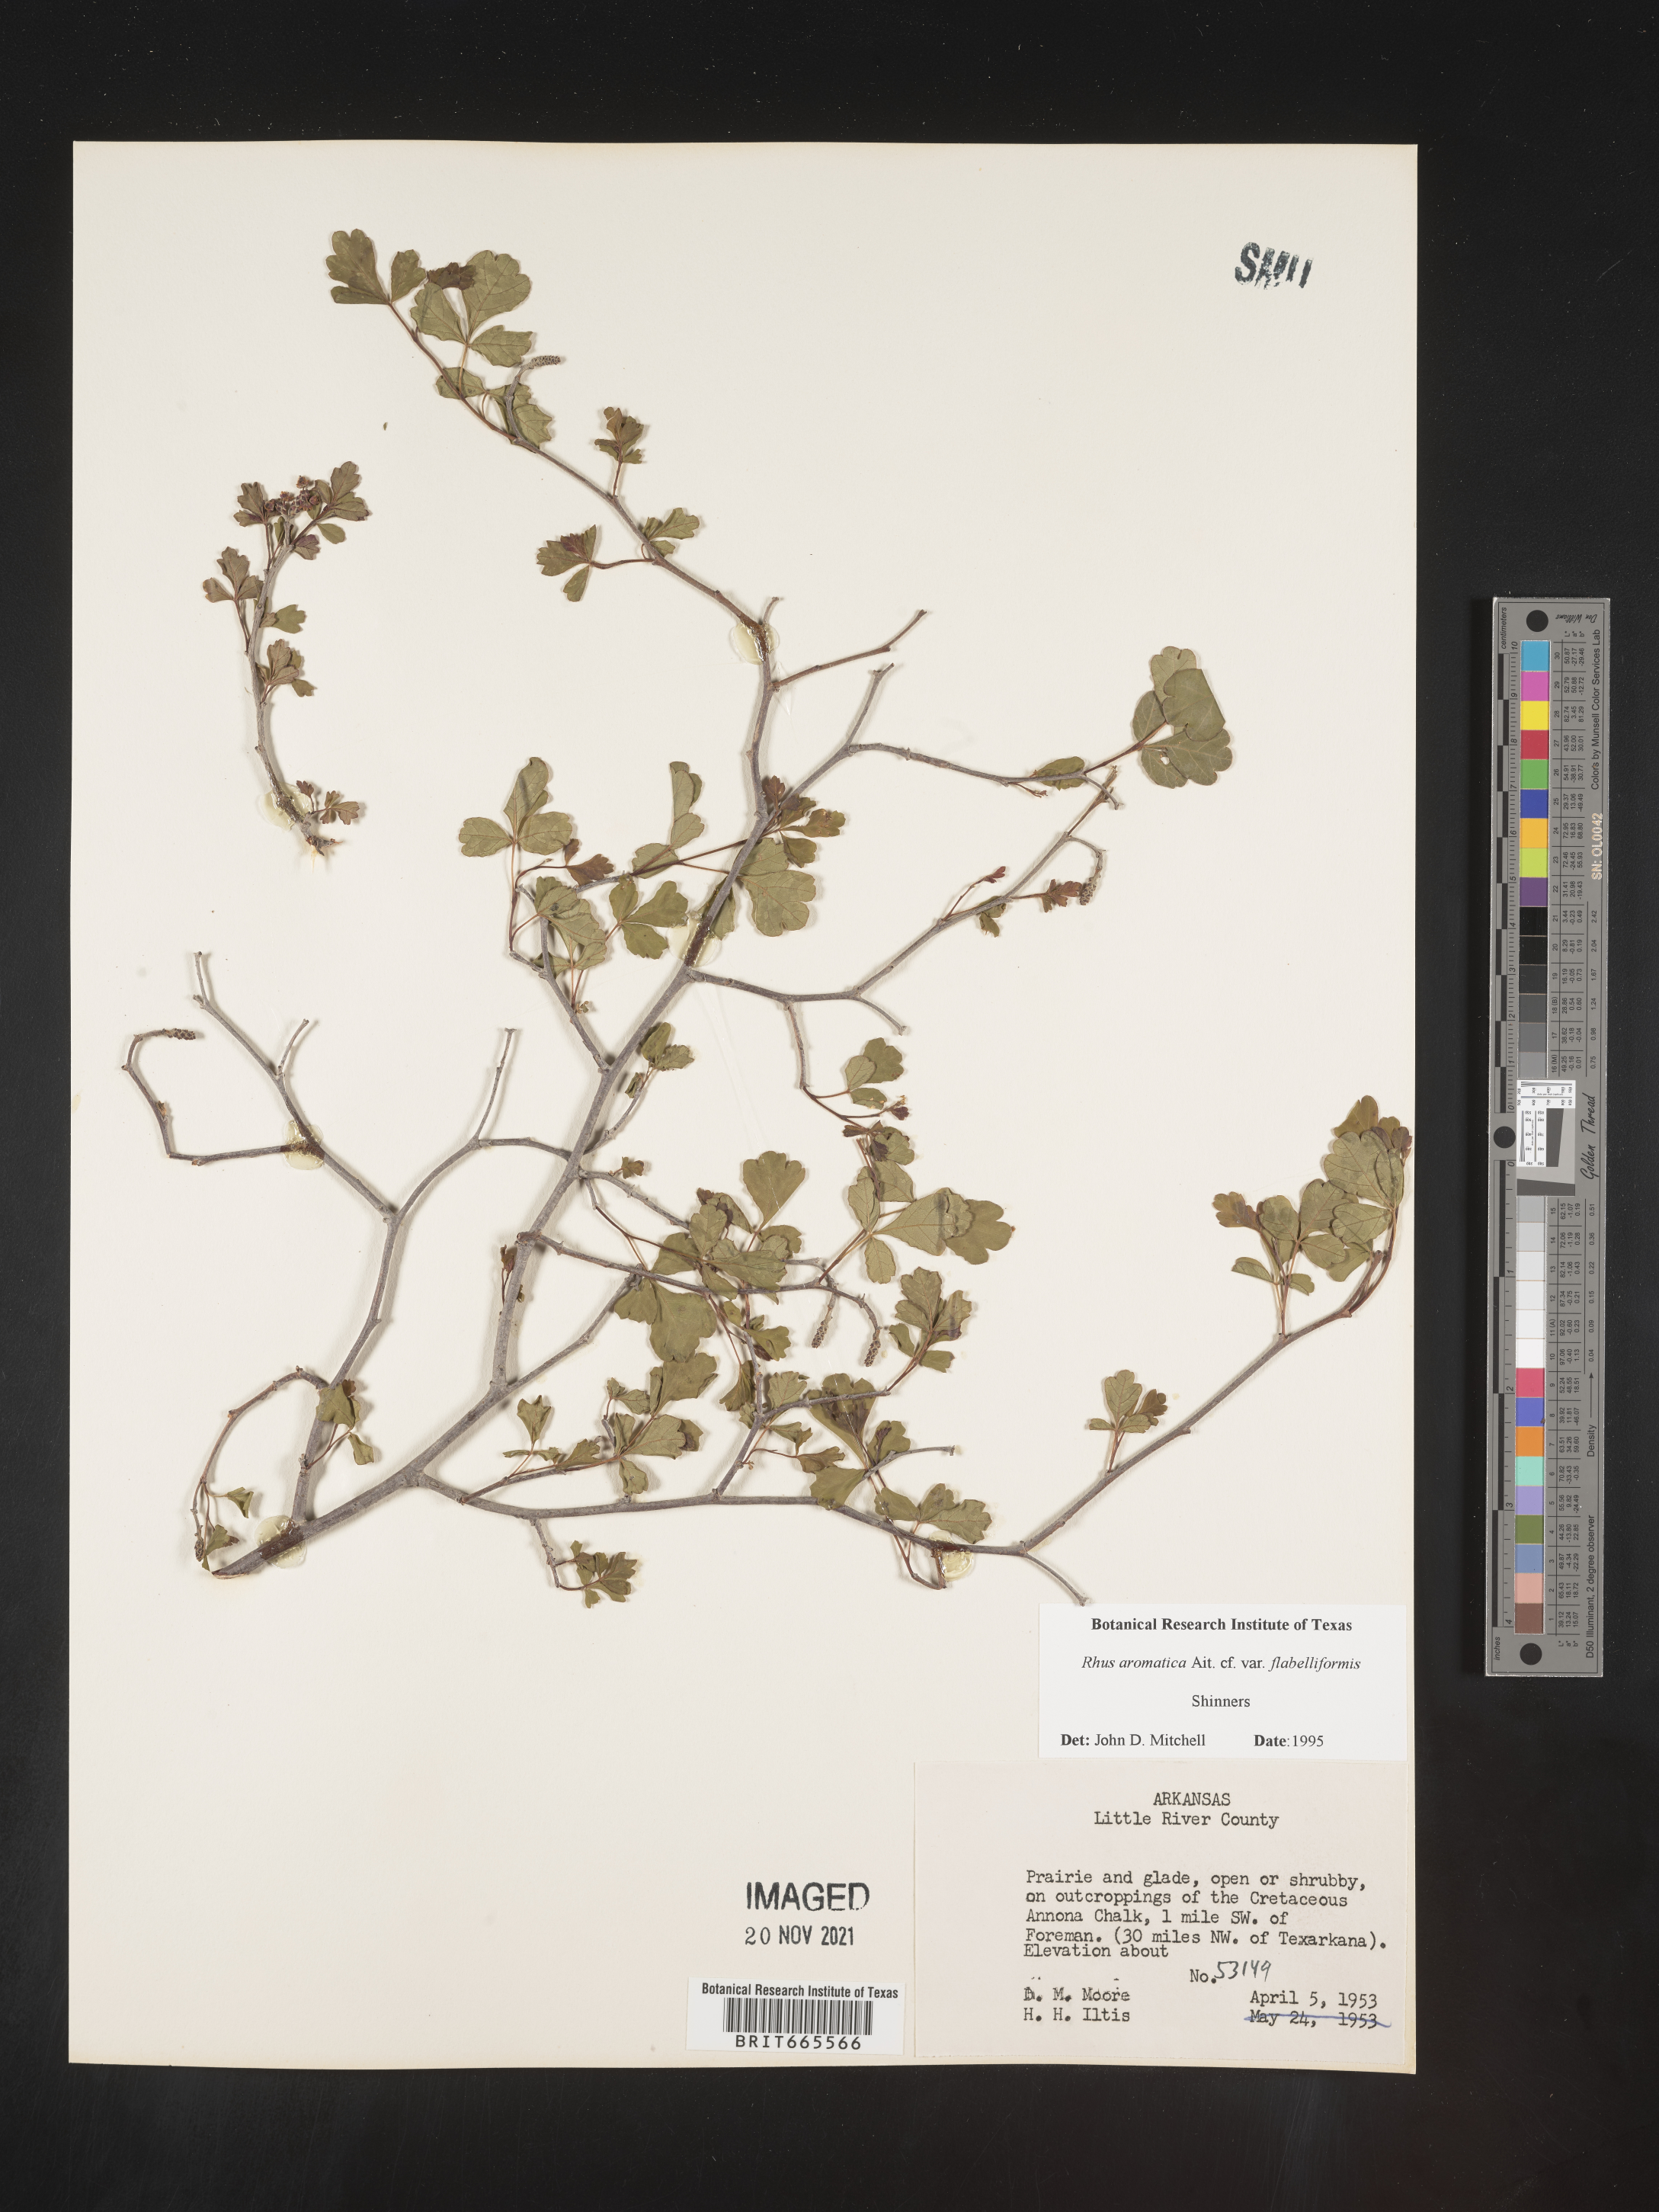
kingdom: Plantae
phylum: Tracheophyta
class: Magnoliopsida
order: Sapindales
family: Anacardiaceae
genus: Rhus
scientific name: Rhus aromatica
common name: Aromatic sumac
